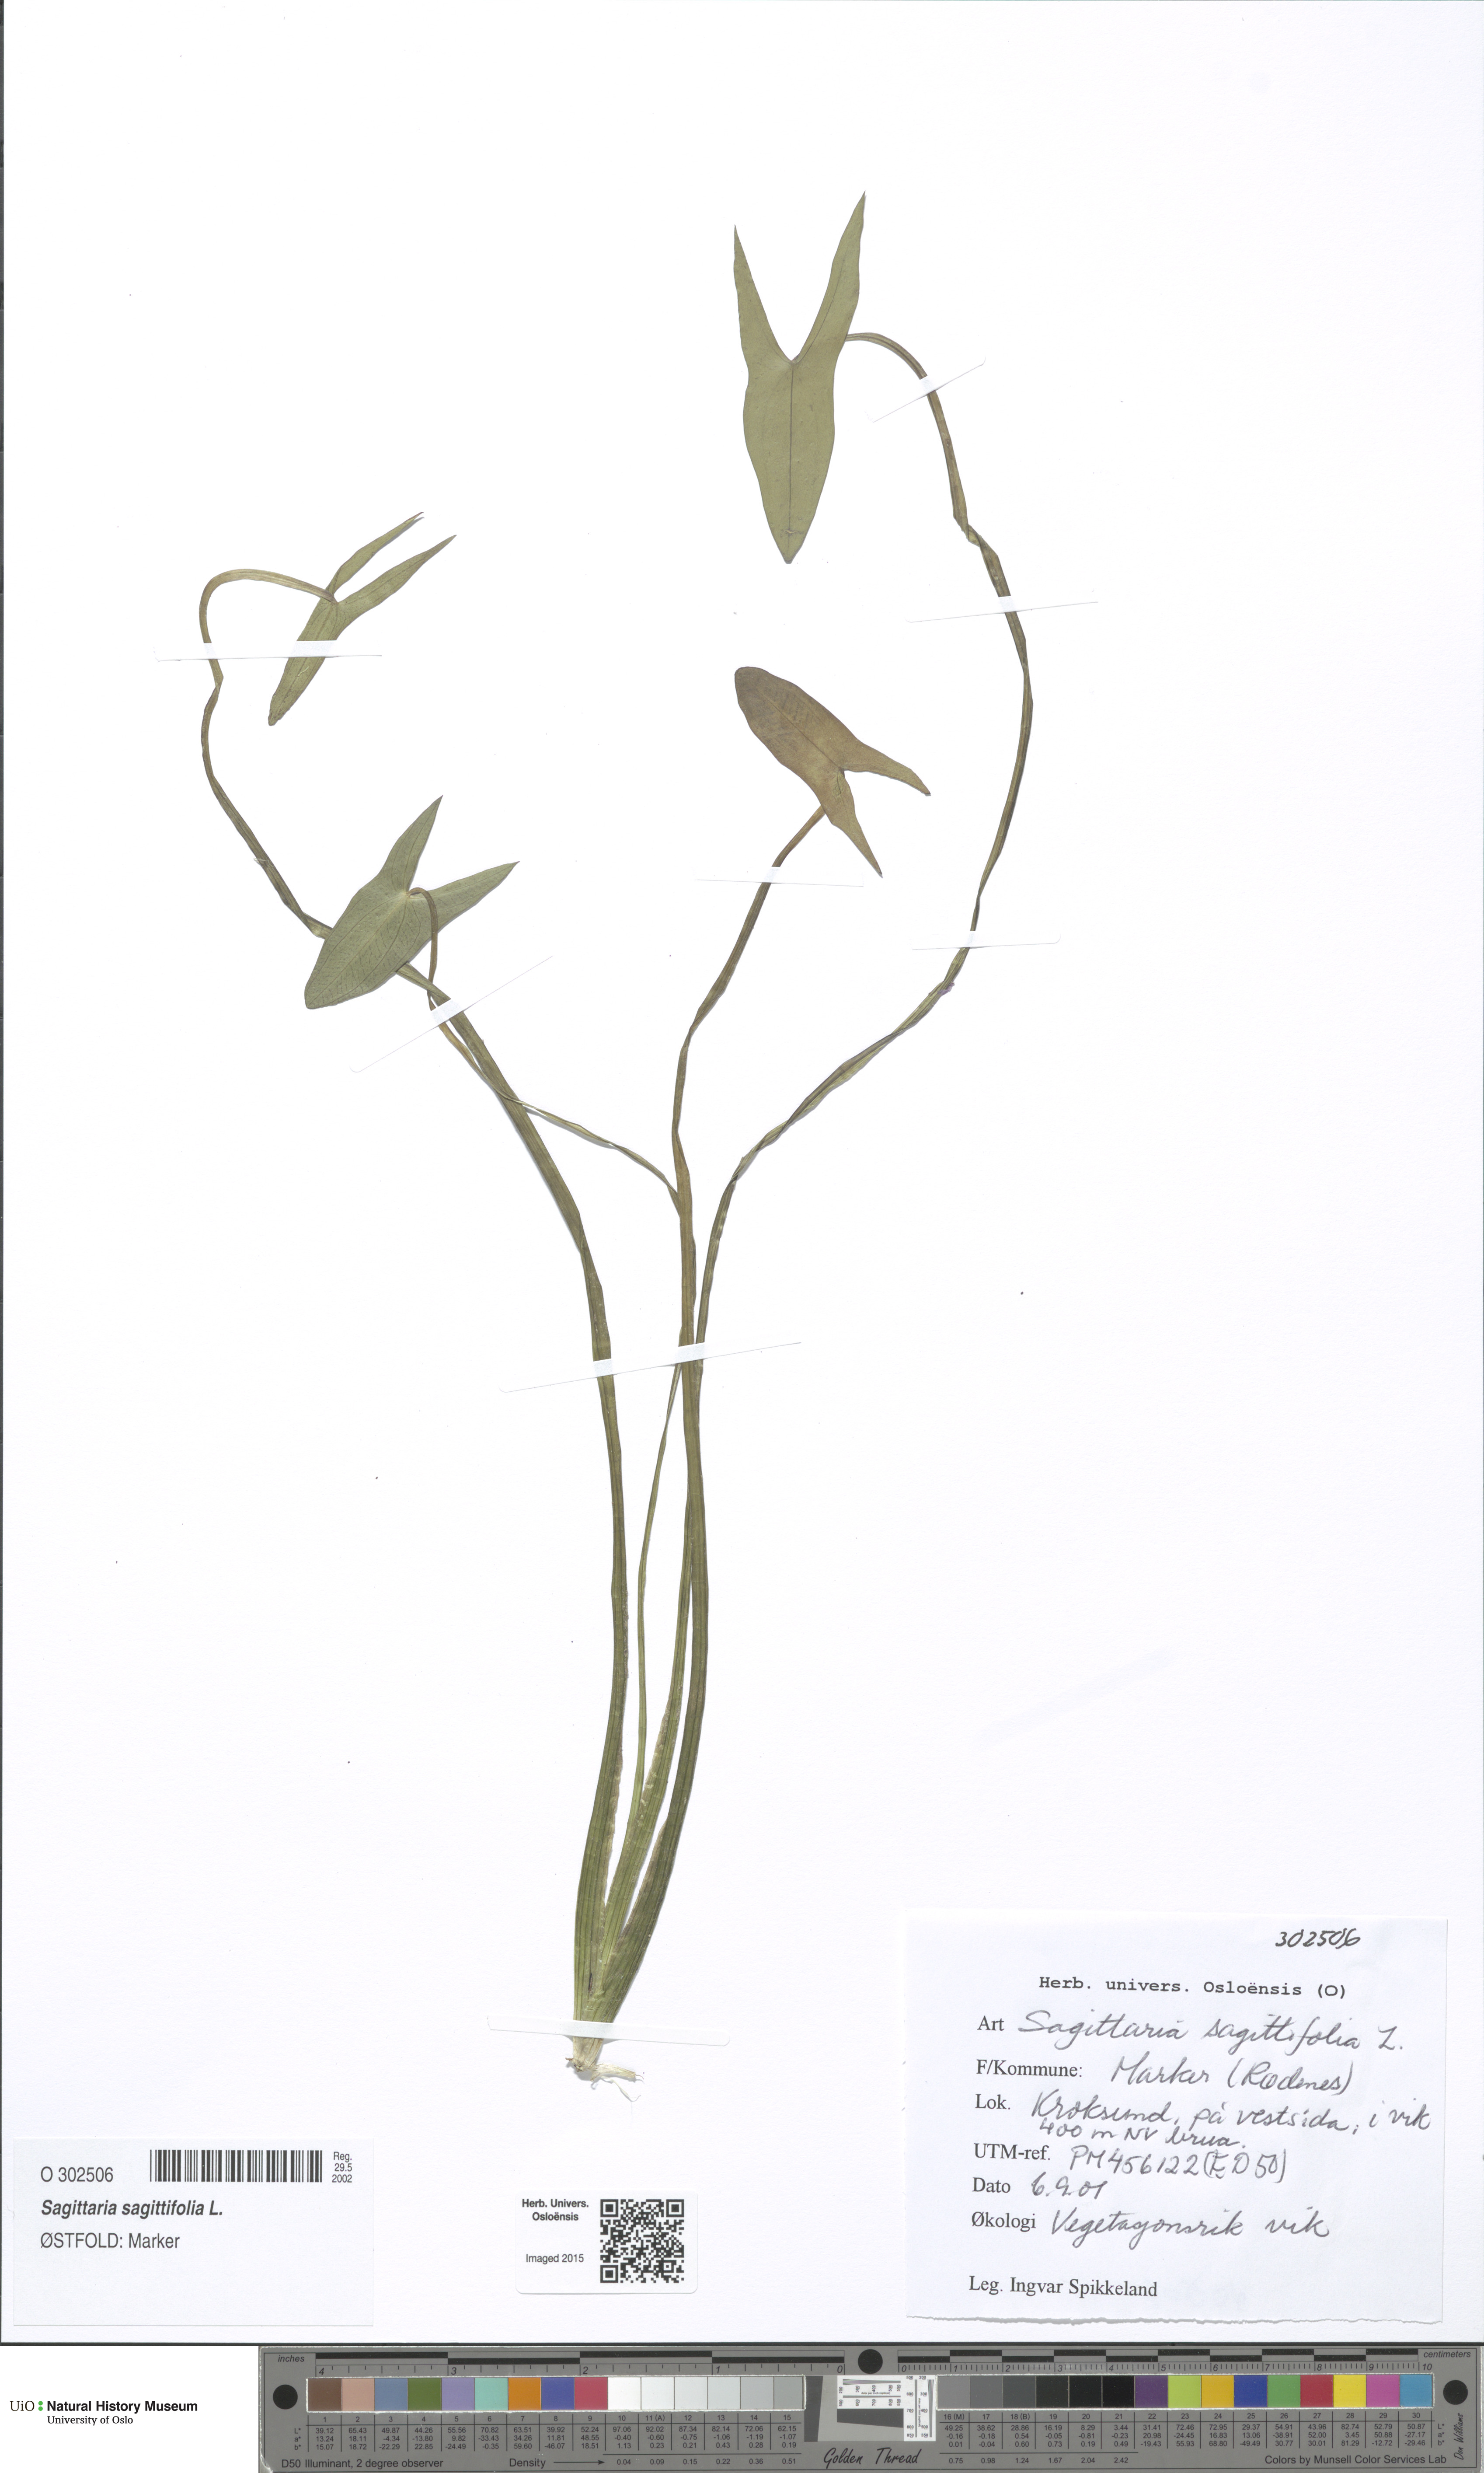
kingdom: Plantae
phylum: Tracheophyta
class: Liliopsida
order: Alismatales
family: Alismataceae
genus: Sagittaria
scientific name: Sagittaria sagittifolia
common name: Arrowhead
